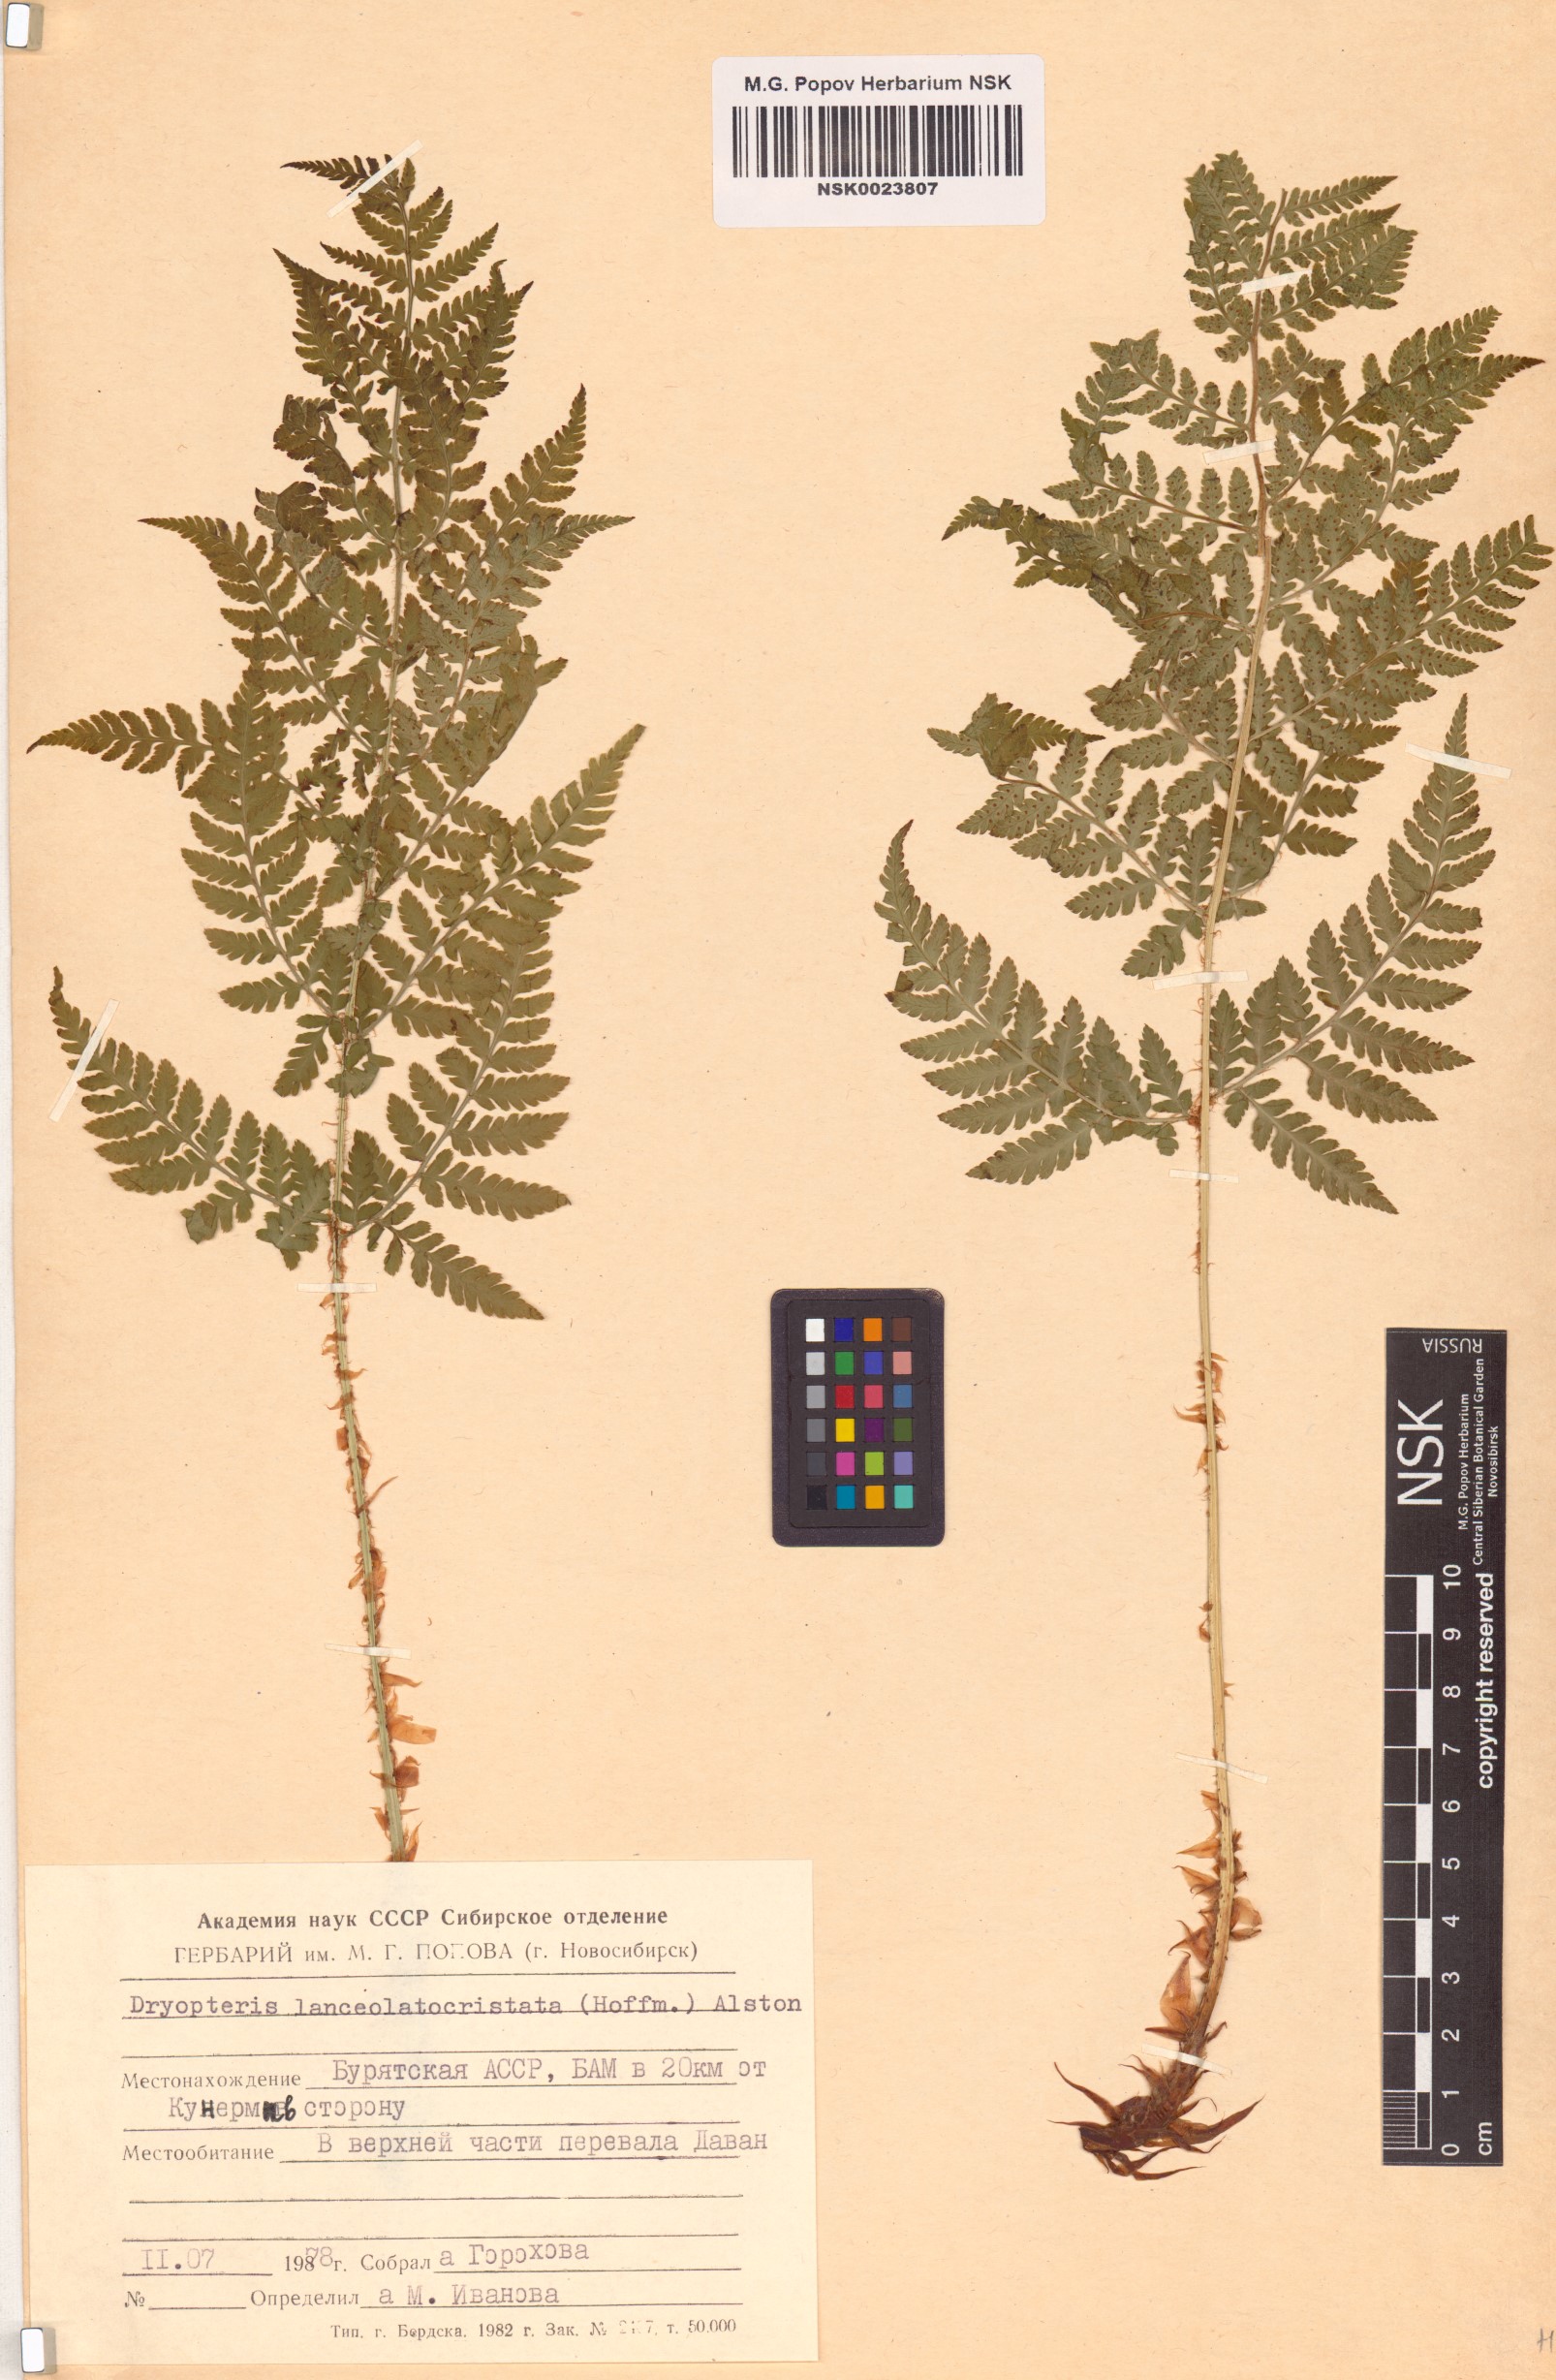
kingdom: Plantae
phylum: Tracheophyta
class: Polypodiopsida
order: Polypodiales
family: Dryopteridaceae
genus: Dryopteris
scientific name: Dryopteris carthusiana
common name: Narrow buckler-fern
